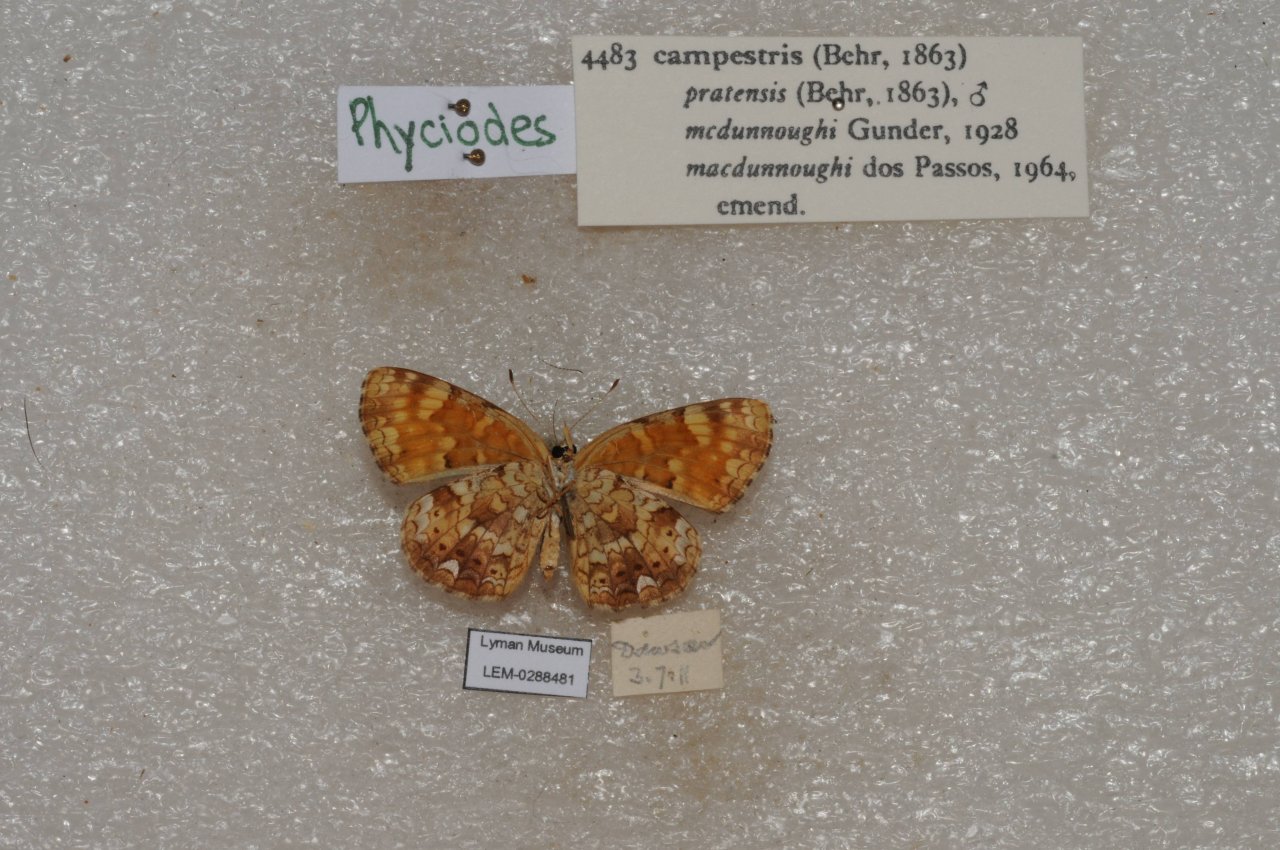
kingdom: Animalia
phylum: Arthropoda
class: Insecta
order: Lepidoptera
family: Nymphalidae
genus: Phyciodes
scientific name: Phyciodes tharos
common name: Field Crescent
